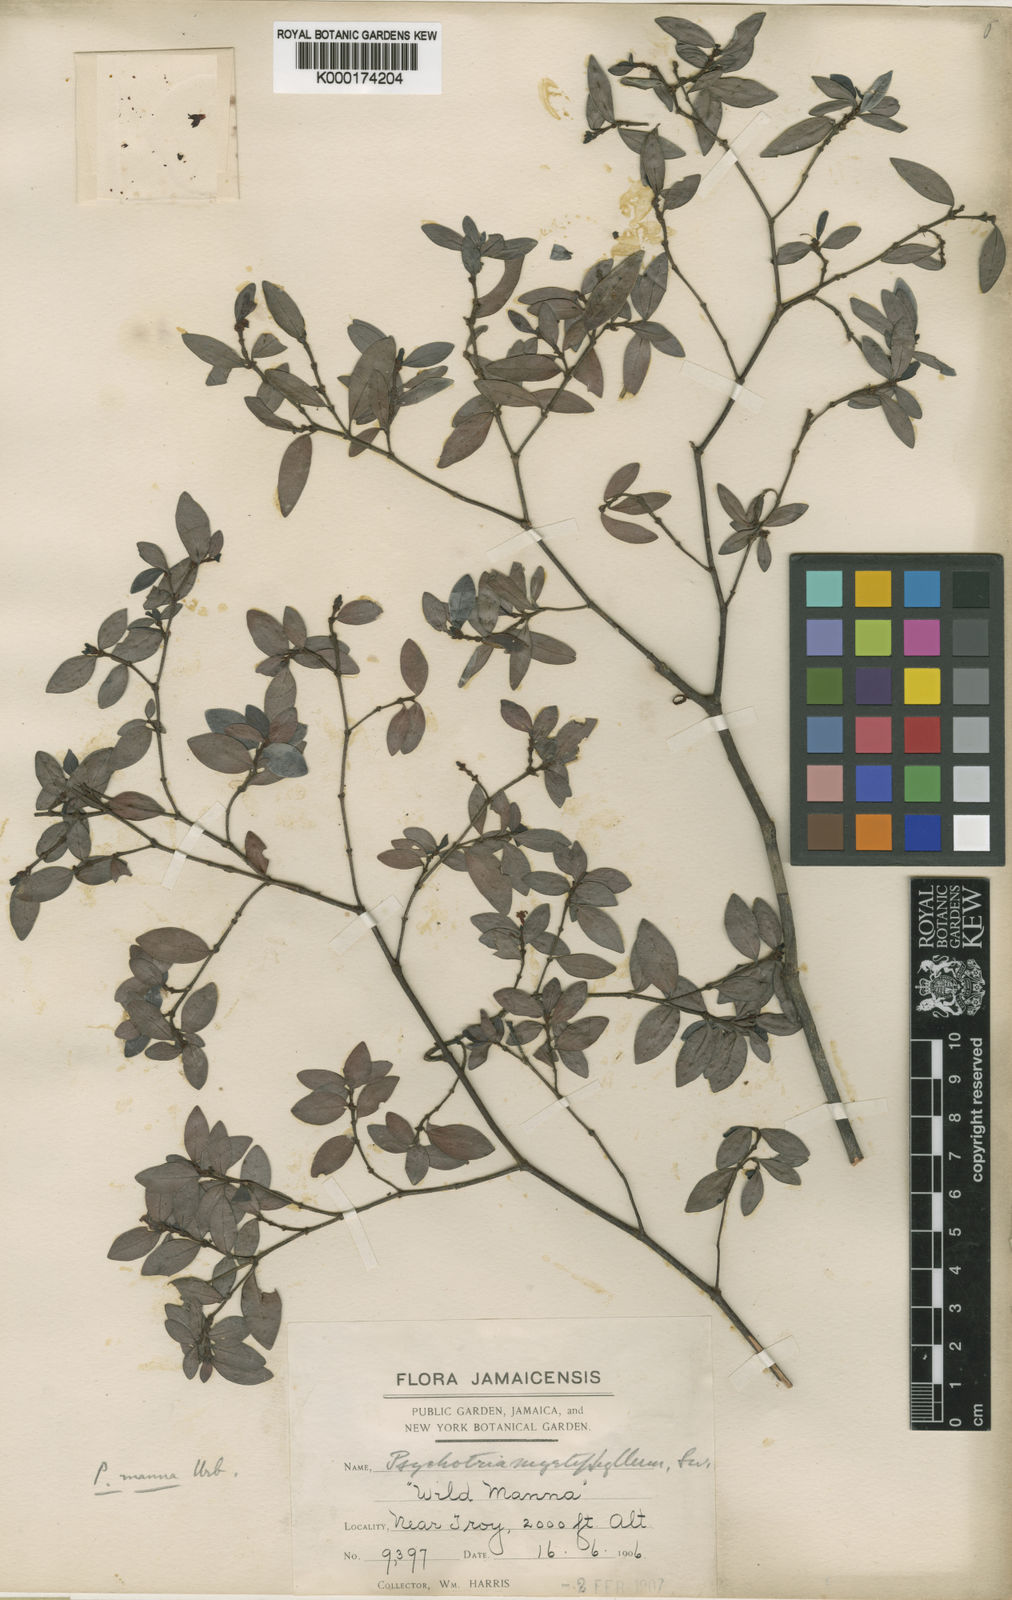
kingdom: Plantae
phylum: Tracheophyta
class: Magnoliopsida
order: Gentianales
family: Rubiaceae
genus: Psychotria
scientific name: Psychotria manna
